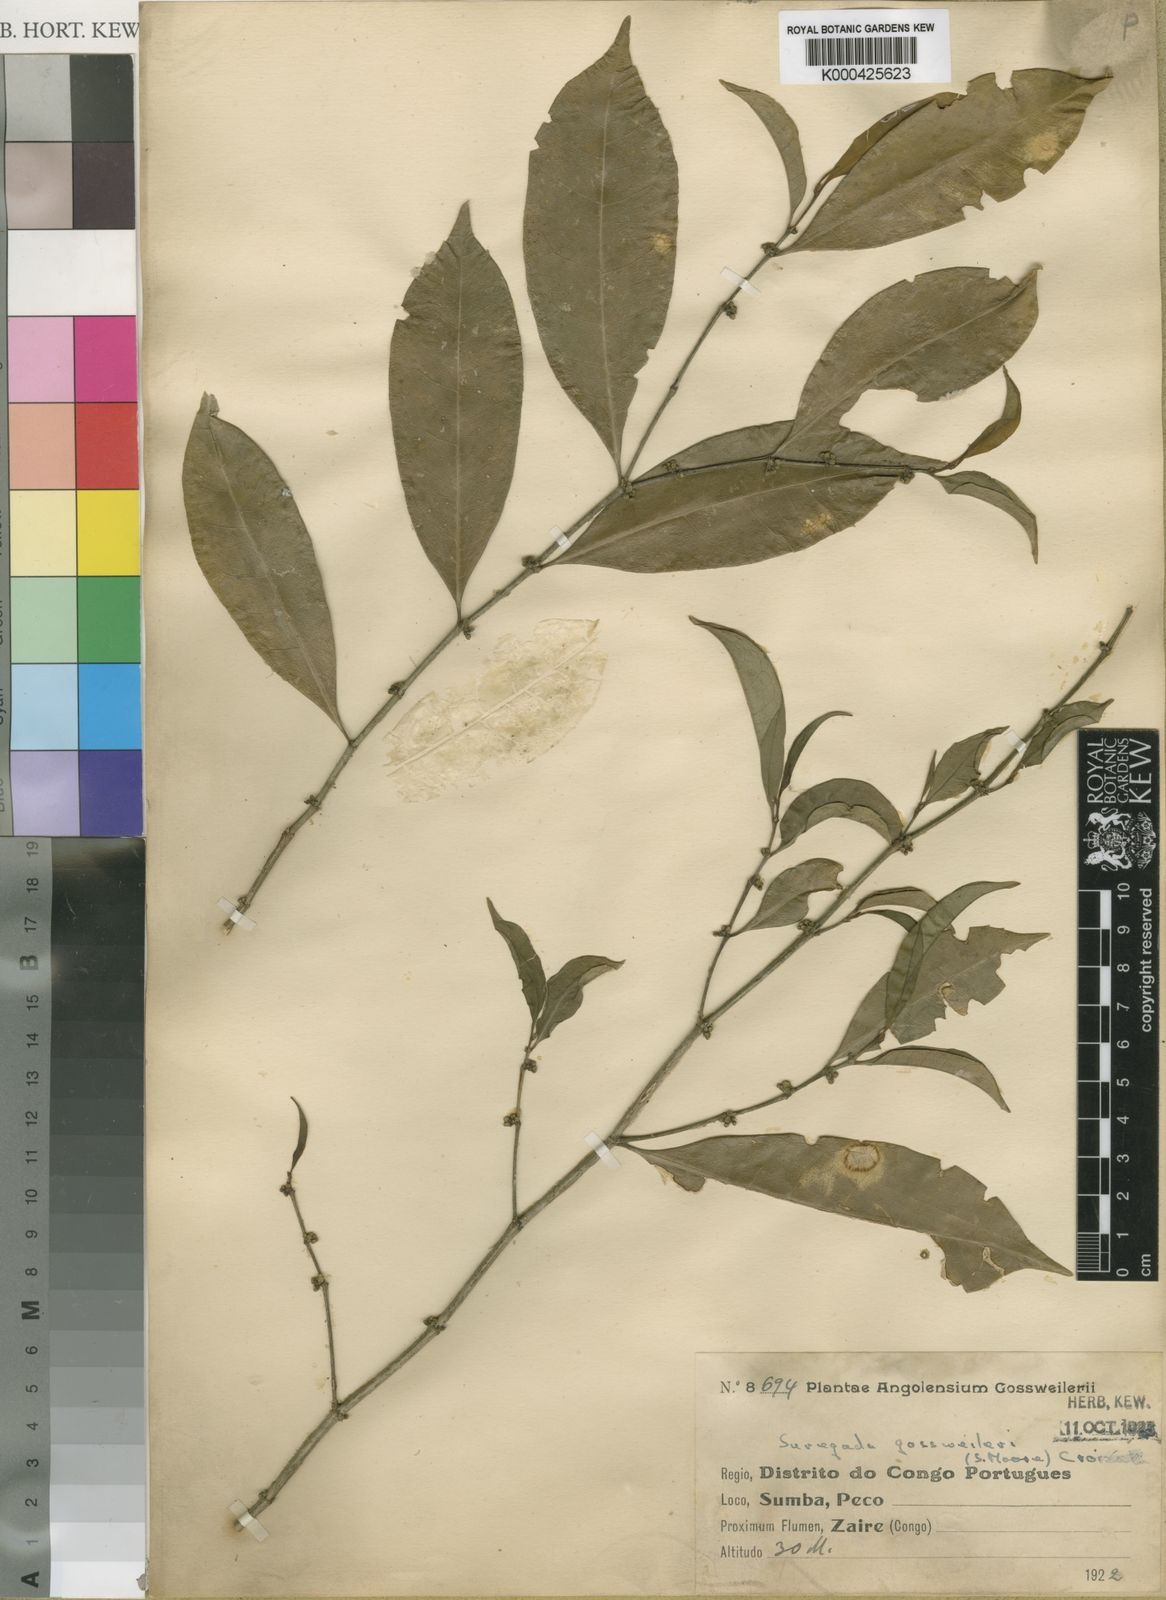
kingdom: Plantae
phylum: Tracheophyta
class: Magnoliopsida
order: Malpighiales
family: Euphorbiaceae
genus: Suregada
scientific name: Suregada gossweileri
